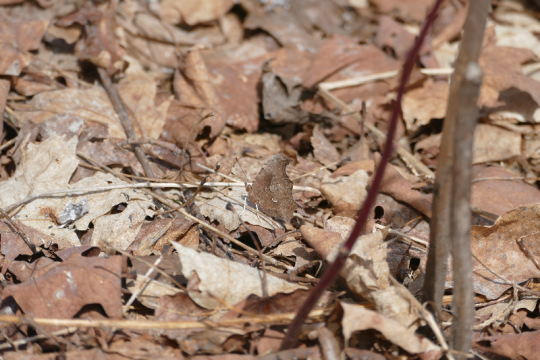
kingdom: Animalia
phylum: Arthropoda
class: Insecta
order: Lepidoptera
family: Nymphalidae
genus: Polygonia
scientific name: Polygonia comma
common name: Eastern Comma
